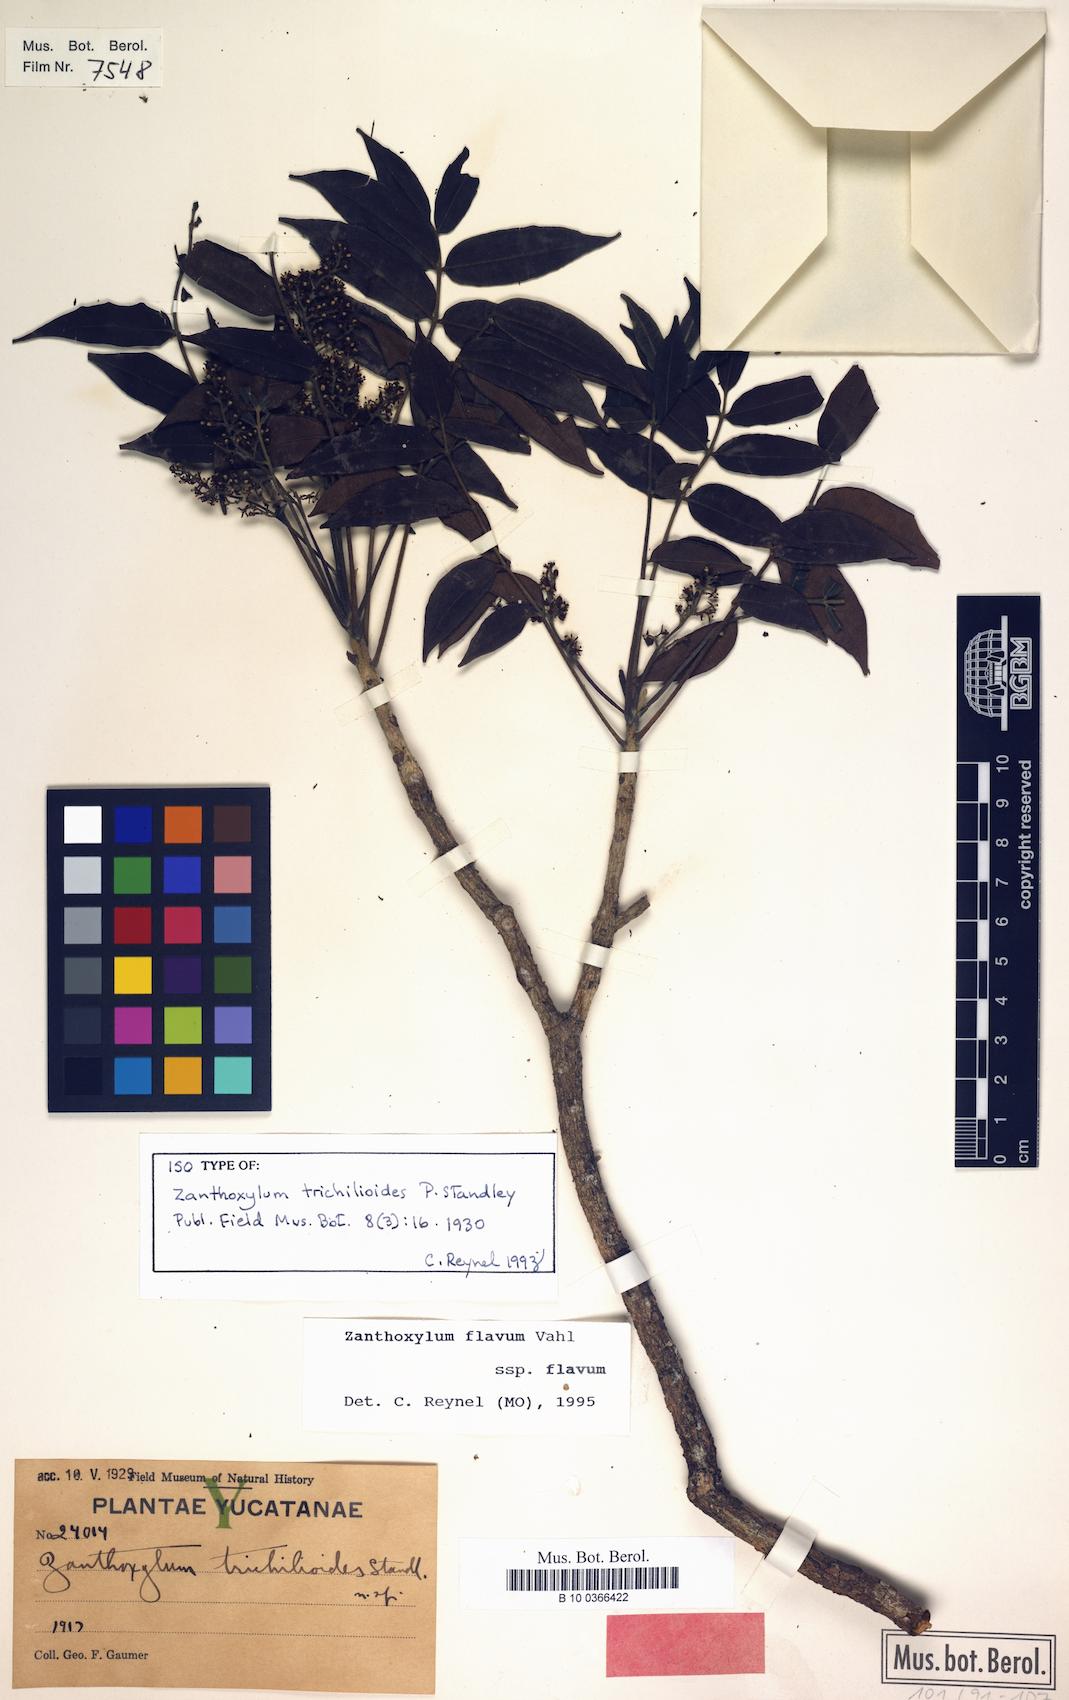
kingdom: Plantae
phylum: Tracheophyta
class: Magnoliopsida
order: Sapindales
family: Rutaceae
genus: Zanthoxylum
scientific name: Zanthoxylum flavum
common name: West indian satinwood
